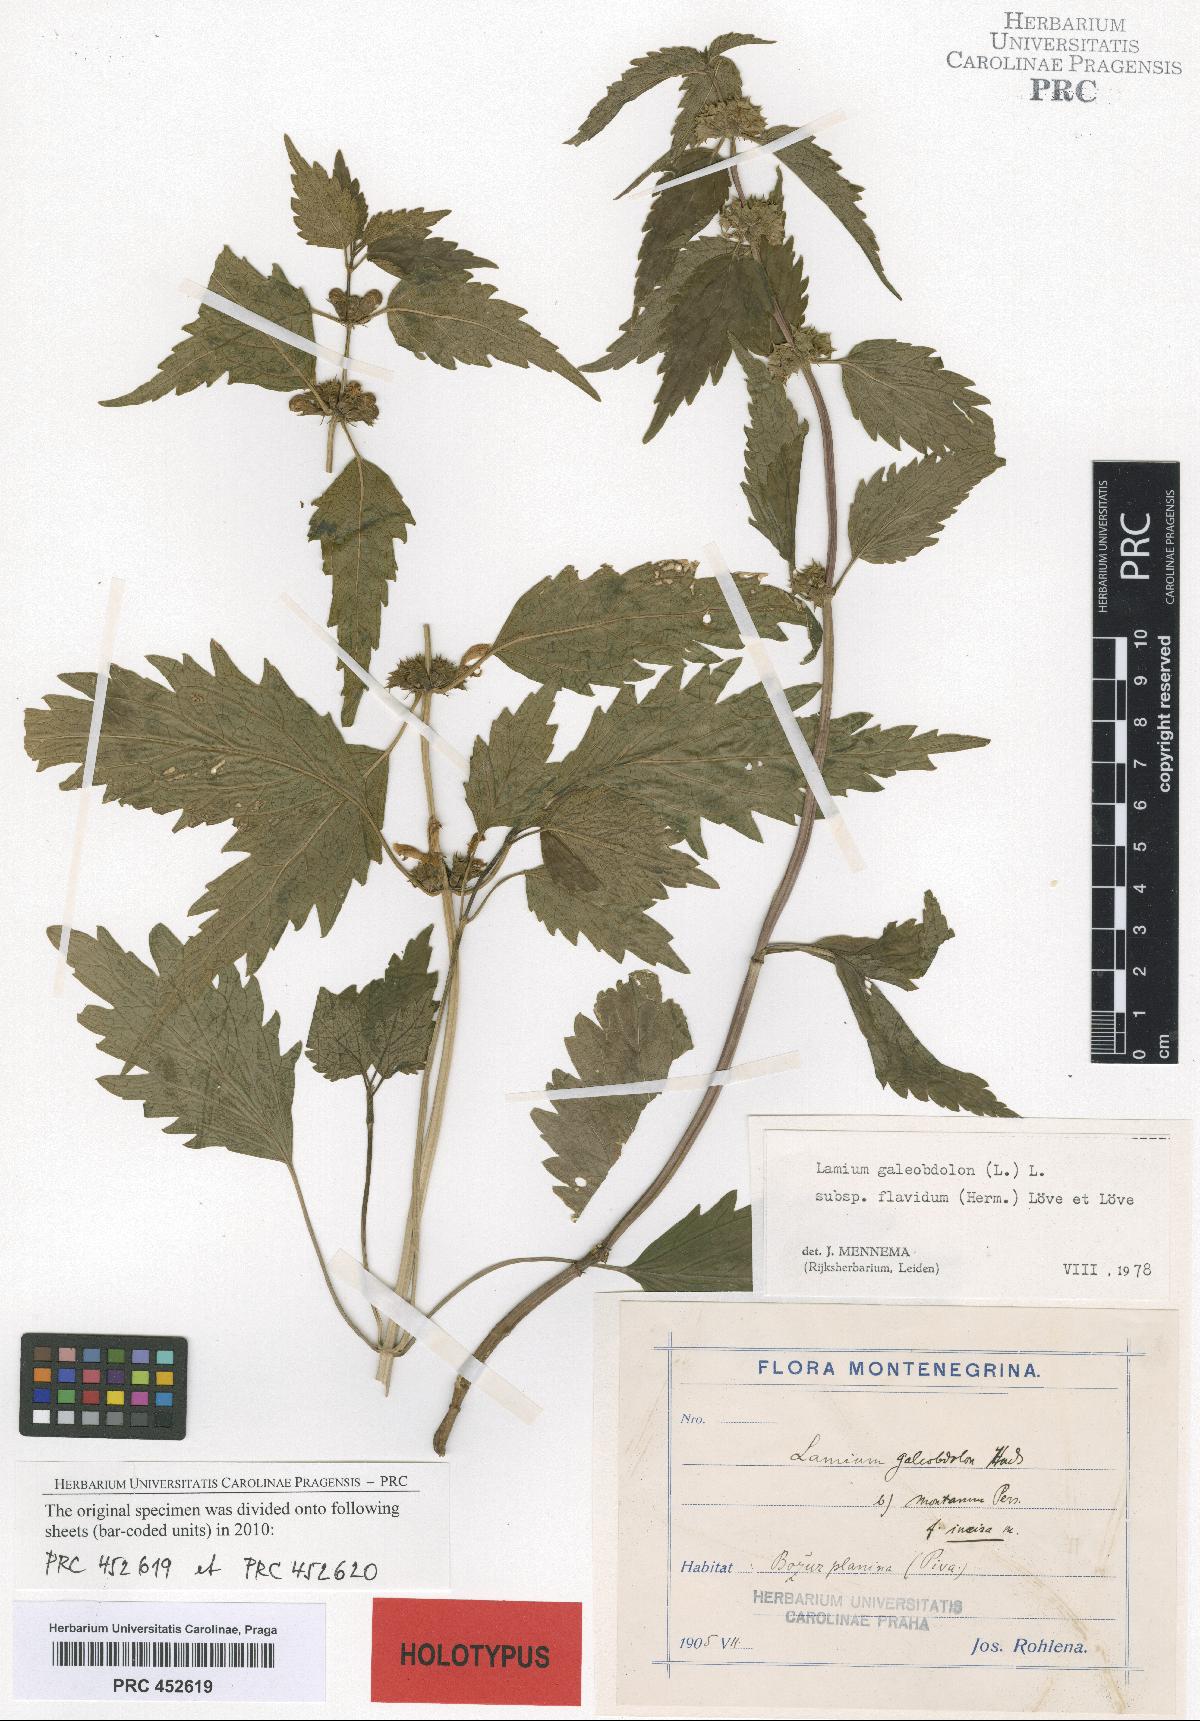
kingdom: Plantae
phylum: Tracheophyta
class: Magnoliopsida
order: Lamiales
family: Lamiaceae
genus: Lamium
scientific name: Lamium galeobdolon
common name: Yellow archangel
